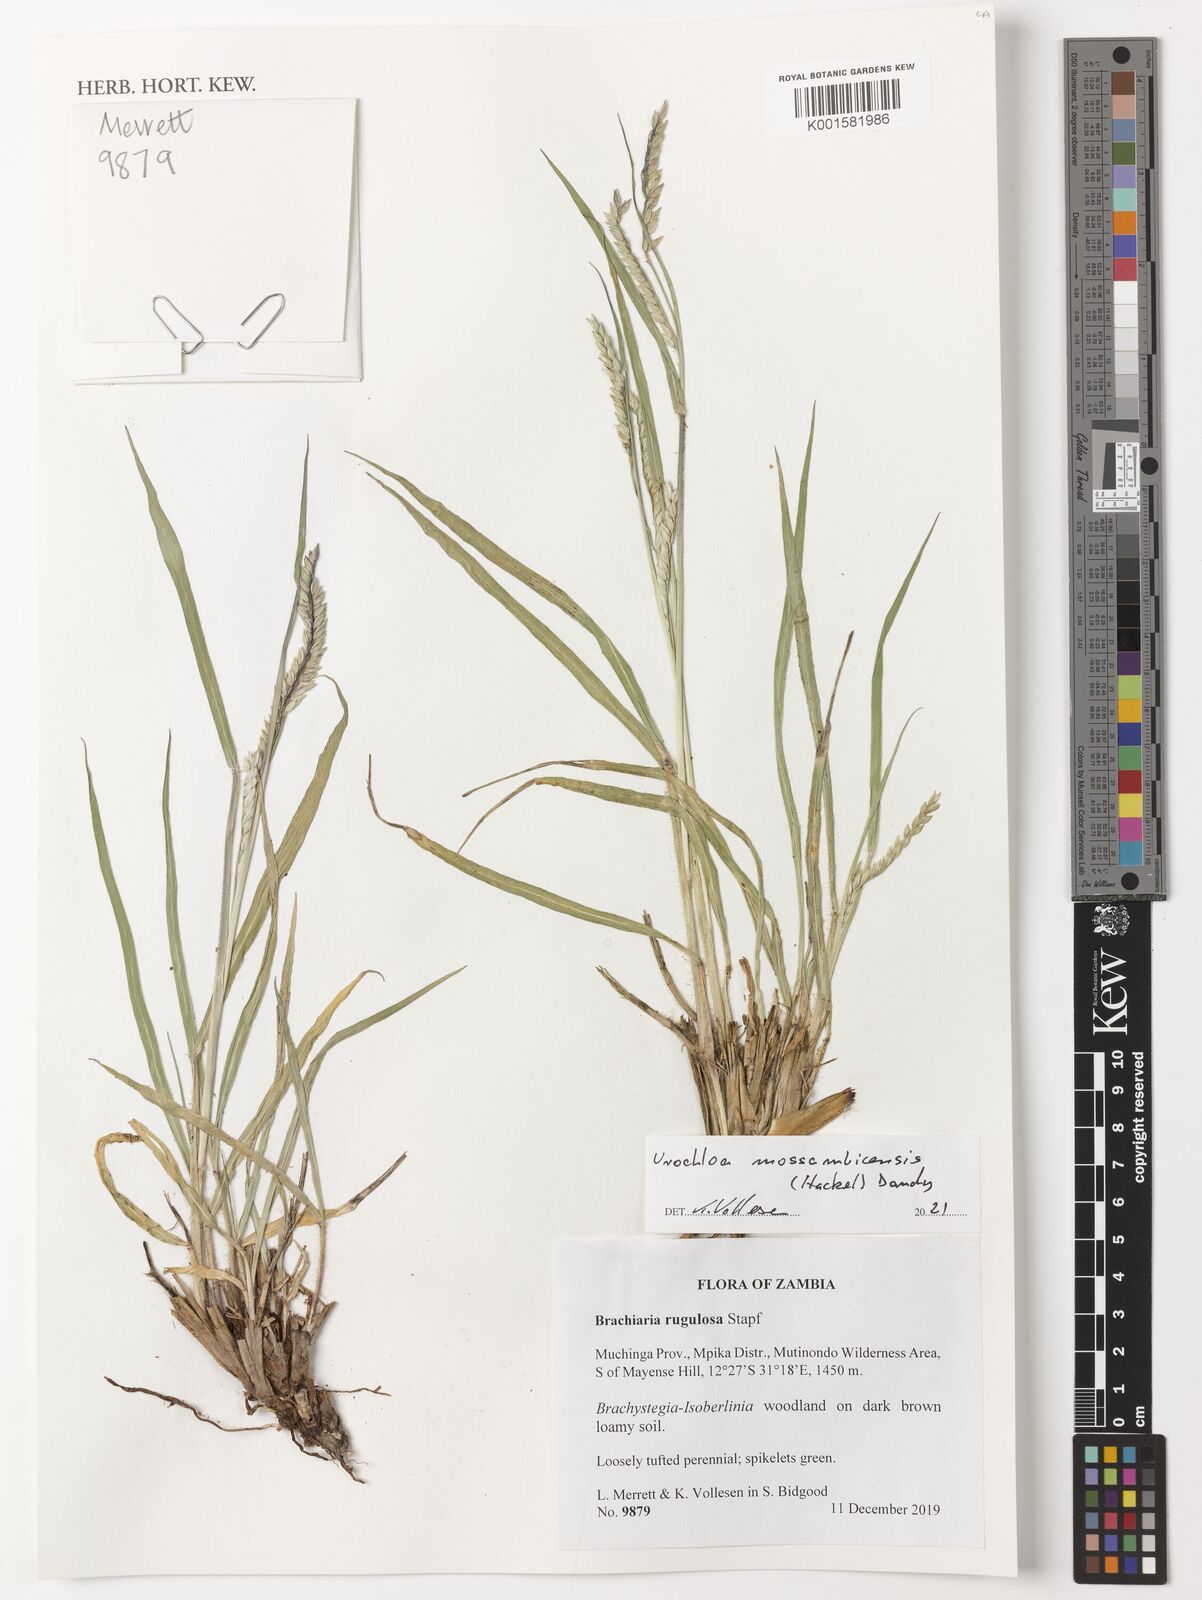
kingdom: Plantae
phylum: Tracheophyta
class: Liliopsida
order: Poales
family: Poaceae
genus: Urochloa
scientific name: Urochloa trichopus
